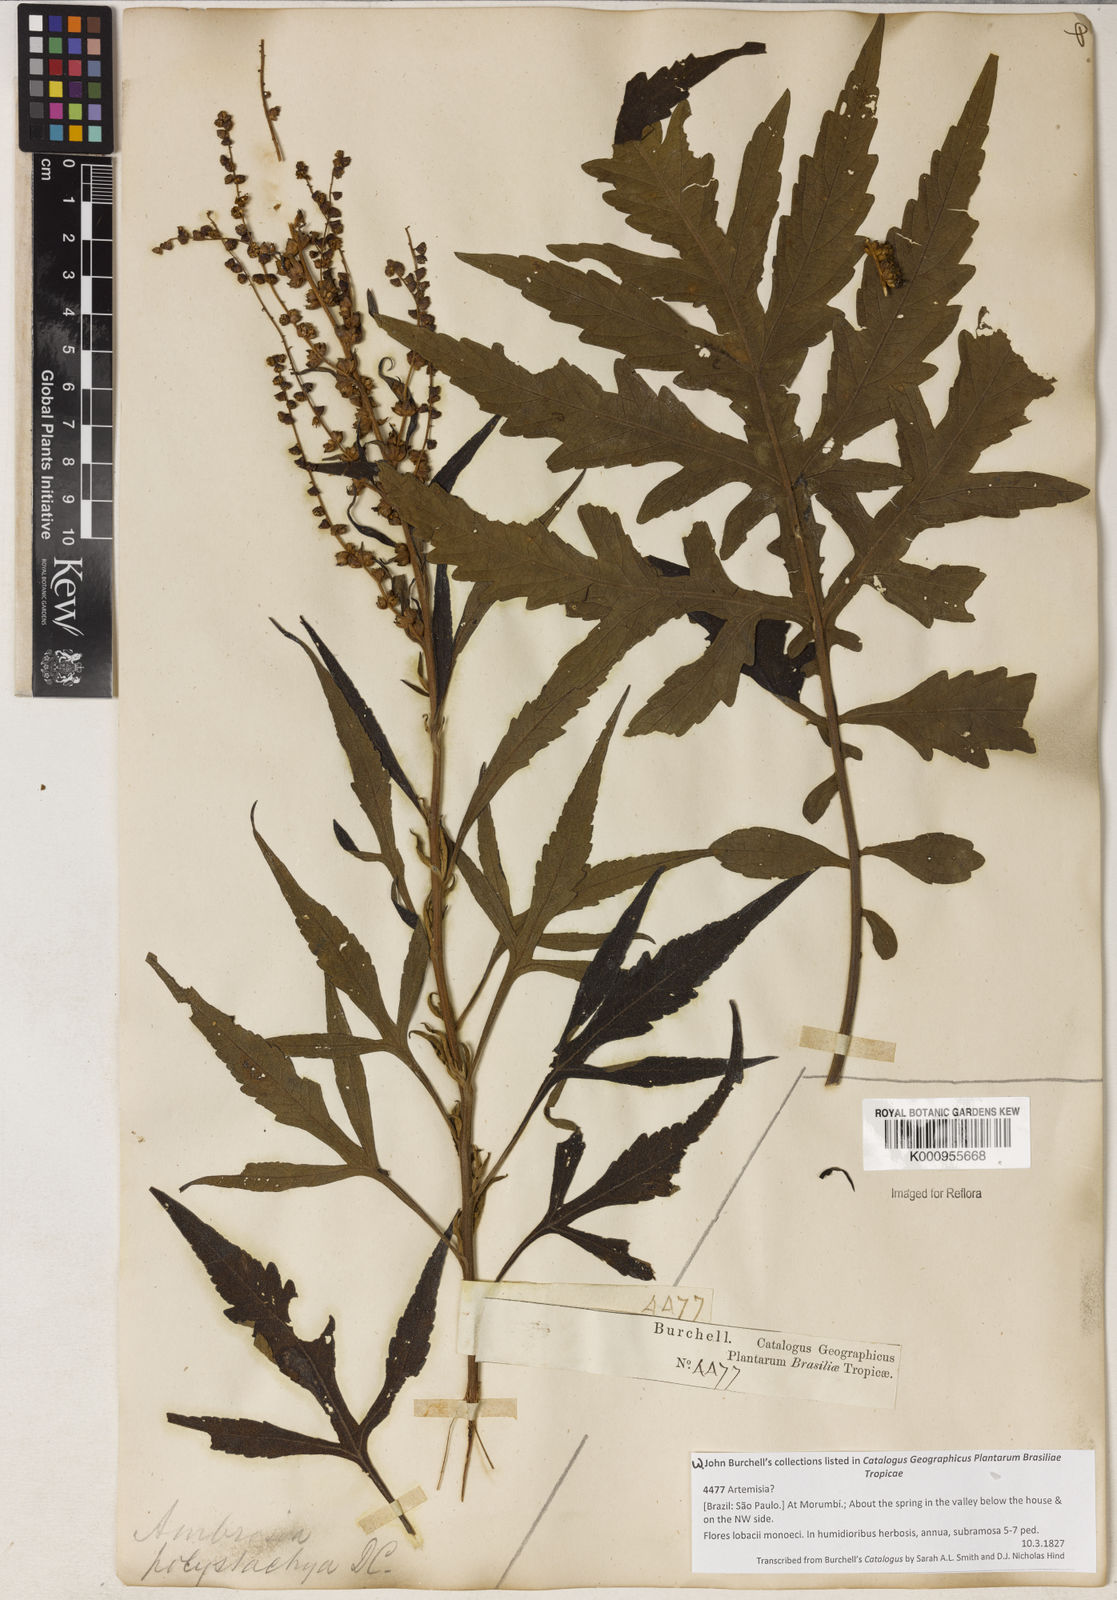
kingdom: Plantae
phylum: Tracheophyta
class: Magnoliopsida
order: Asterales
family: Asteraceae
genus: Ambrosia
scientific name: Ambrosia polystachya
